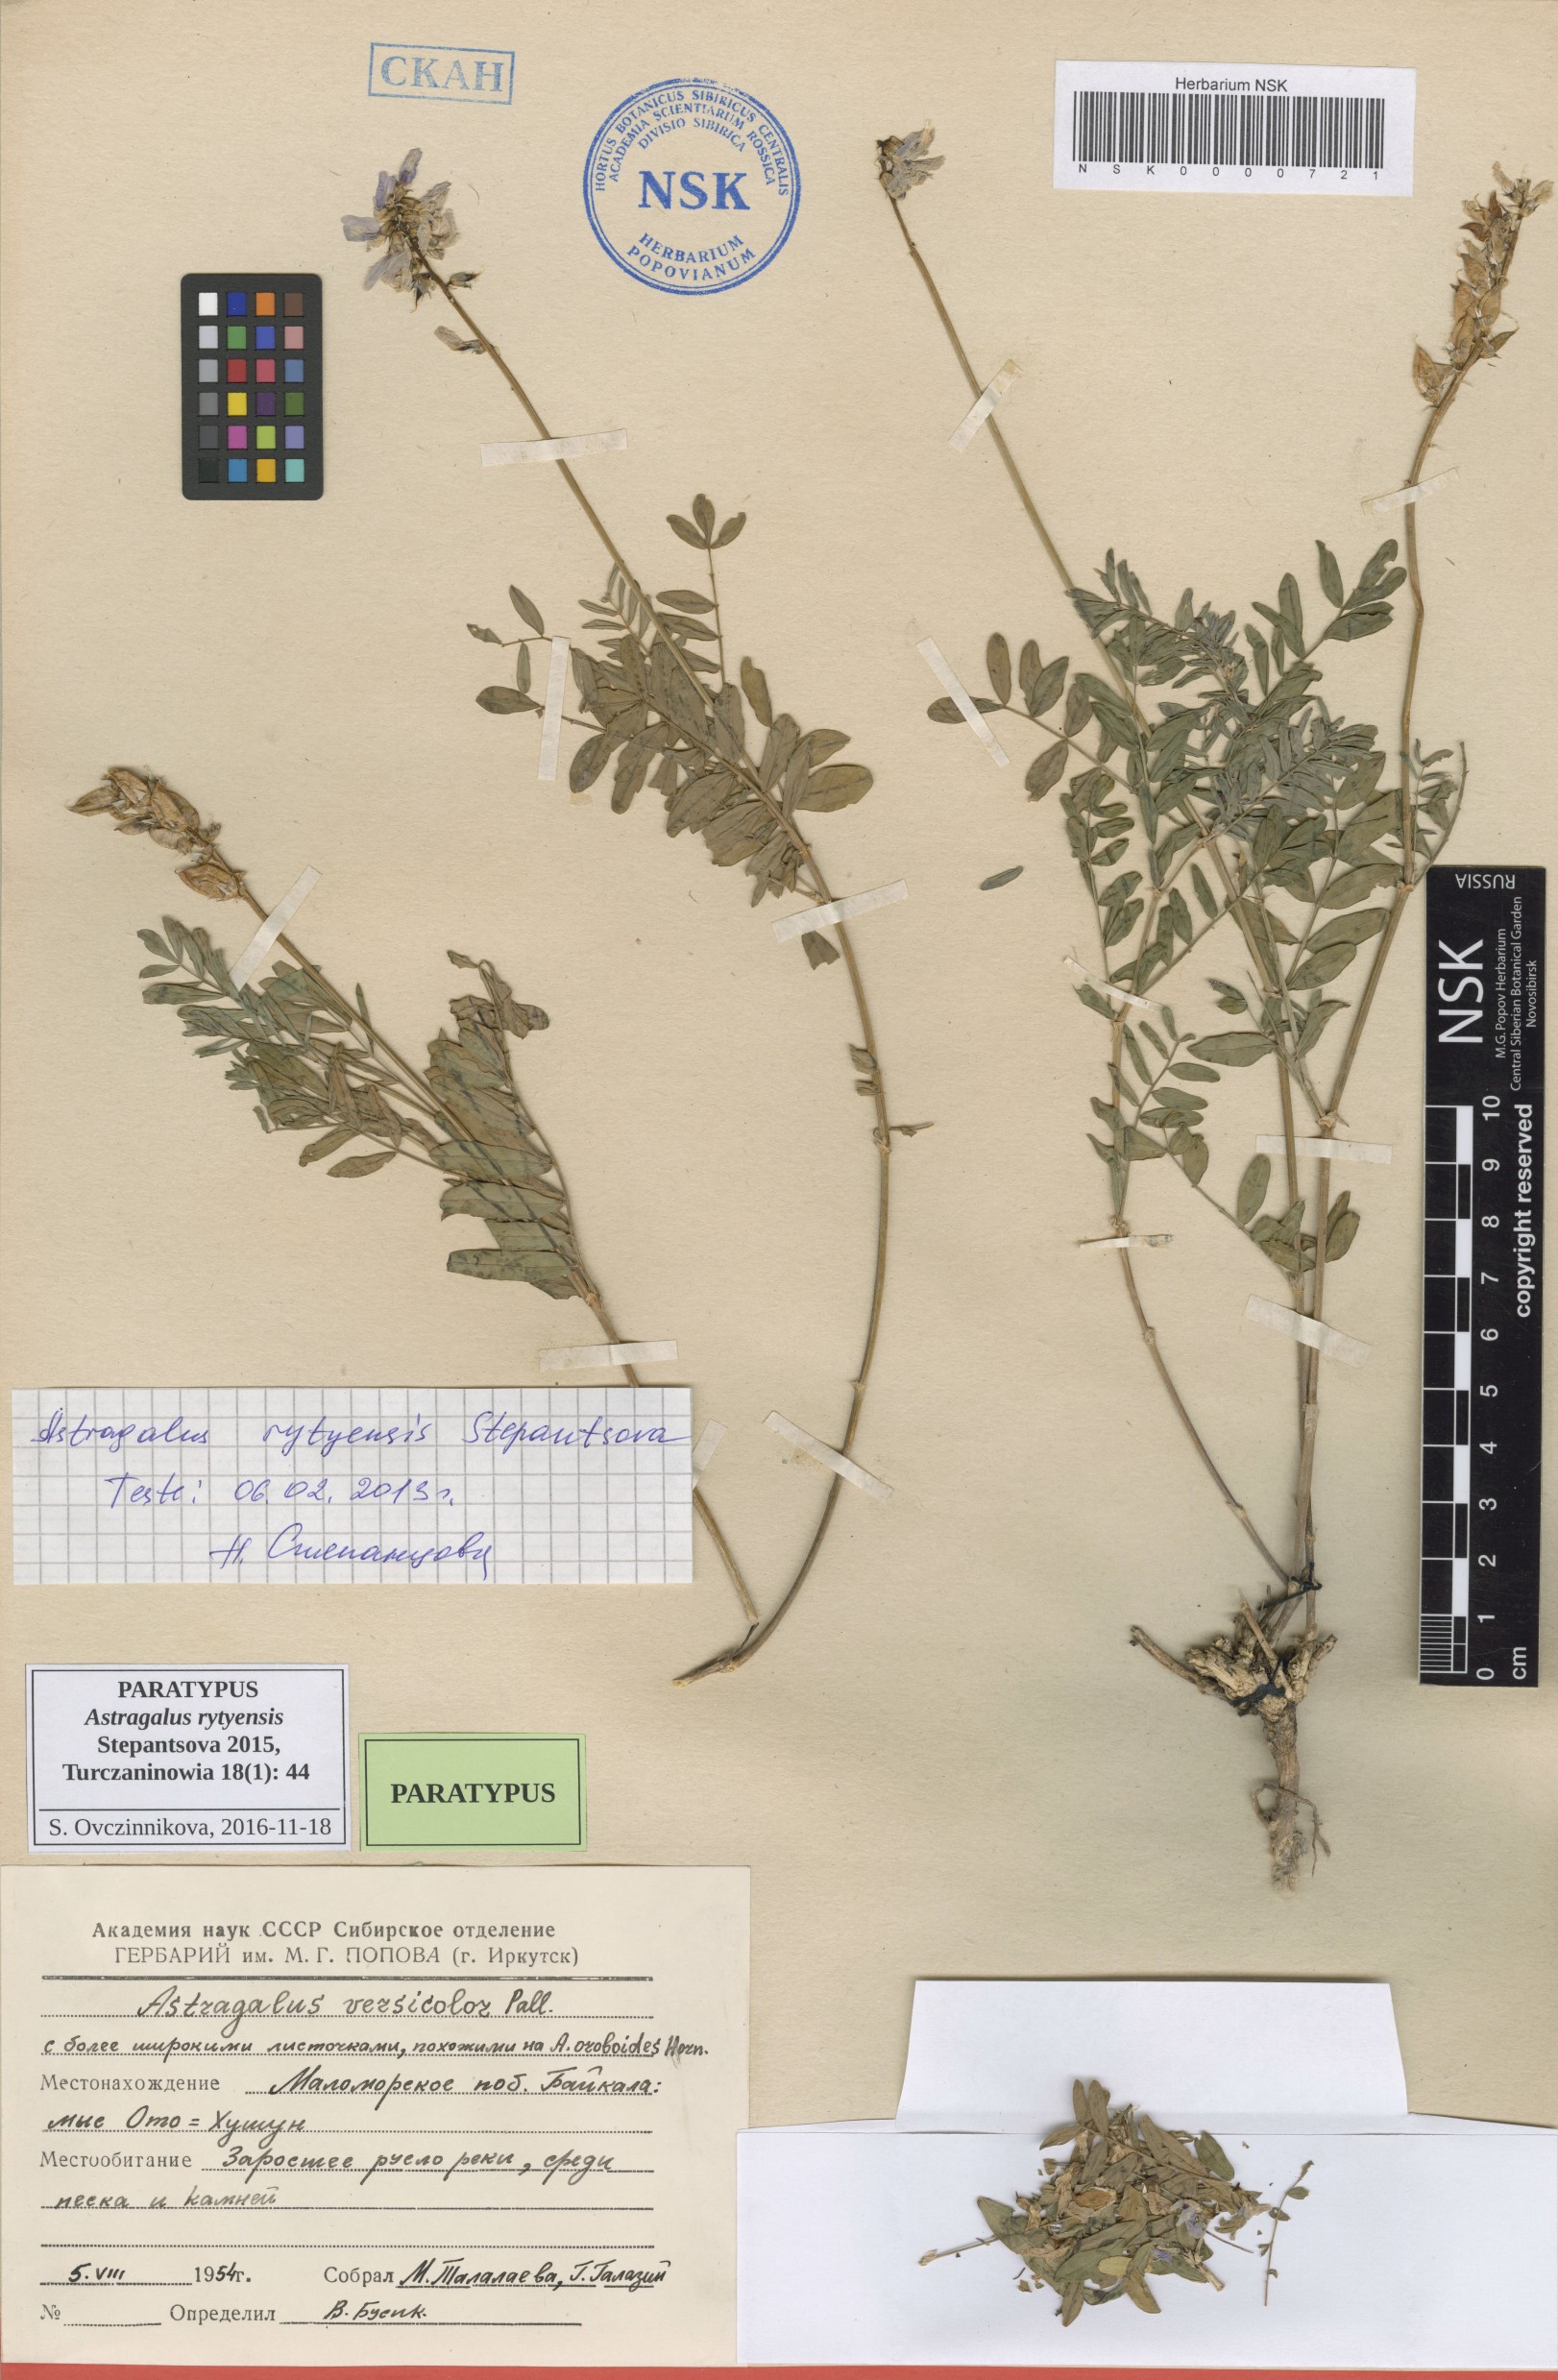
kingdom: Plantae
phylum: Tracheophyta
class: Magnoliopsida
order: Fabales
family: Fabaceae
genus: Astragalus
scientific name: Astragalus rytyensis
